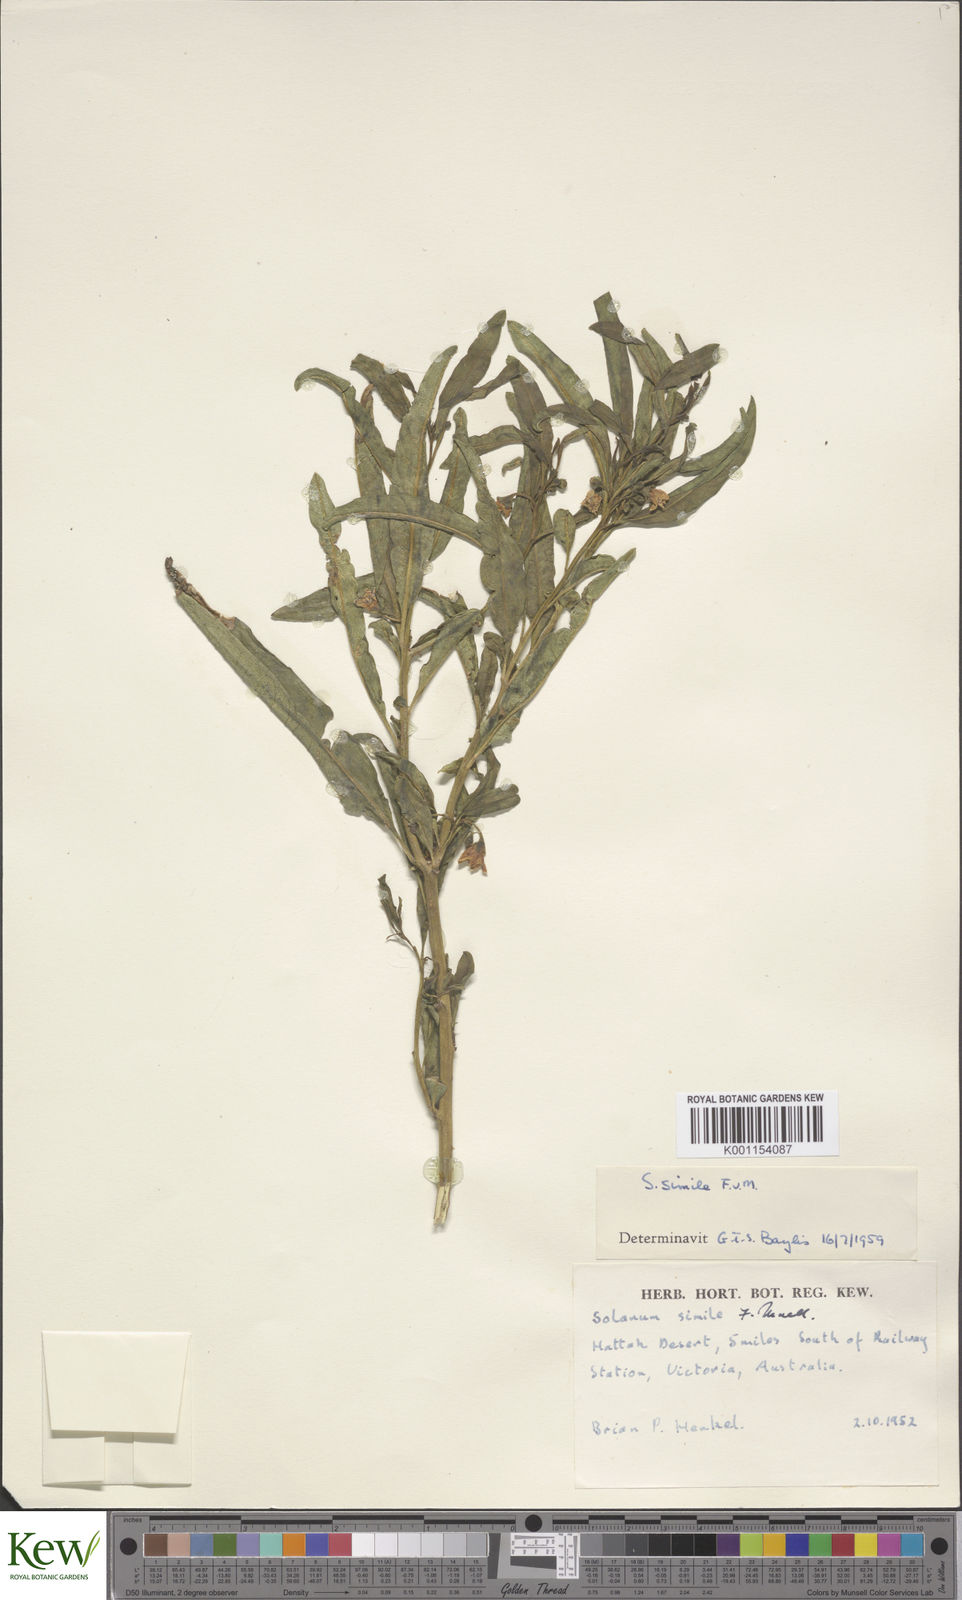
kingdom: Plantae
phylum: Tracheophyta
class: Magnoliopsida
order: Solanales
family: Solanaceae
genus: Solanum
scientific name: Solanum simile
